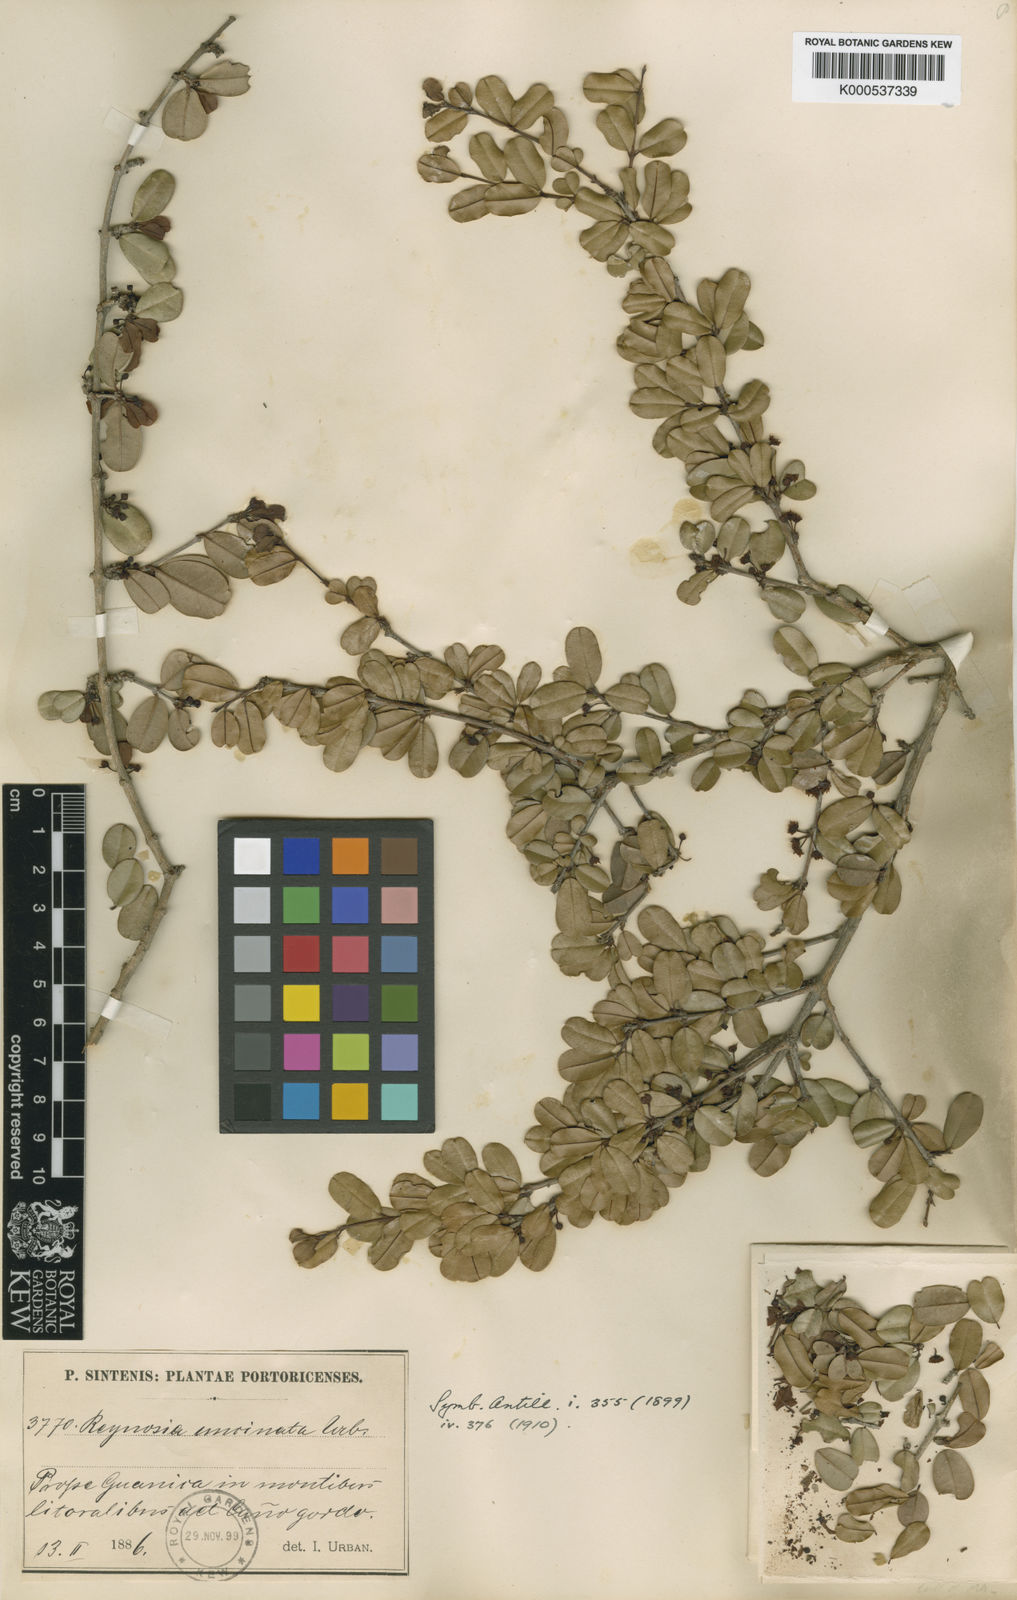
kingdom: Plantae
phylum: Tracheophyta
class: Magnoliopsida
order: Rosales
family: Rhamnaceae
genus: Reynosia
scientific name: Reynosia uncinata
